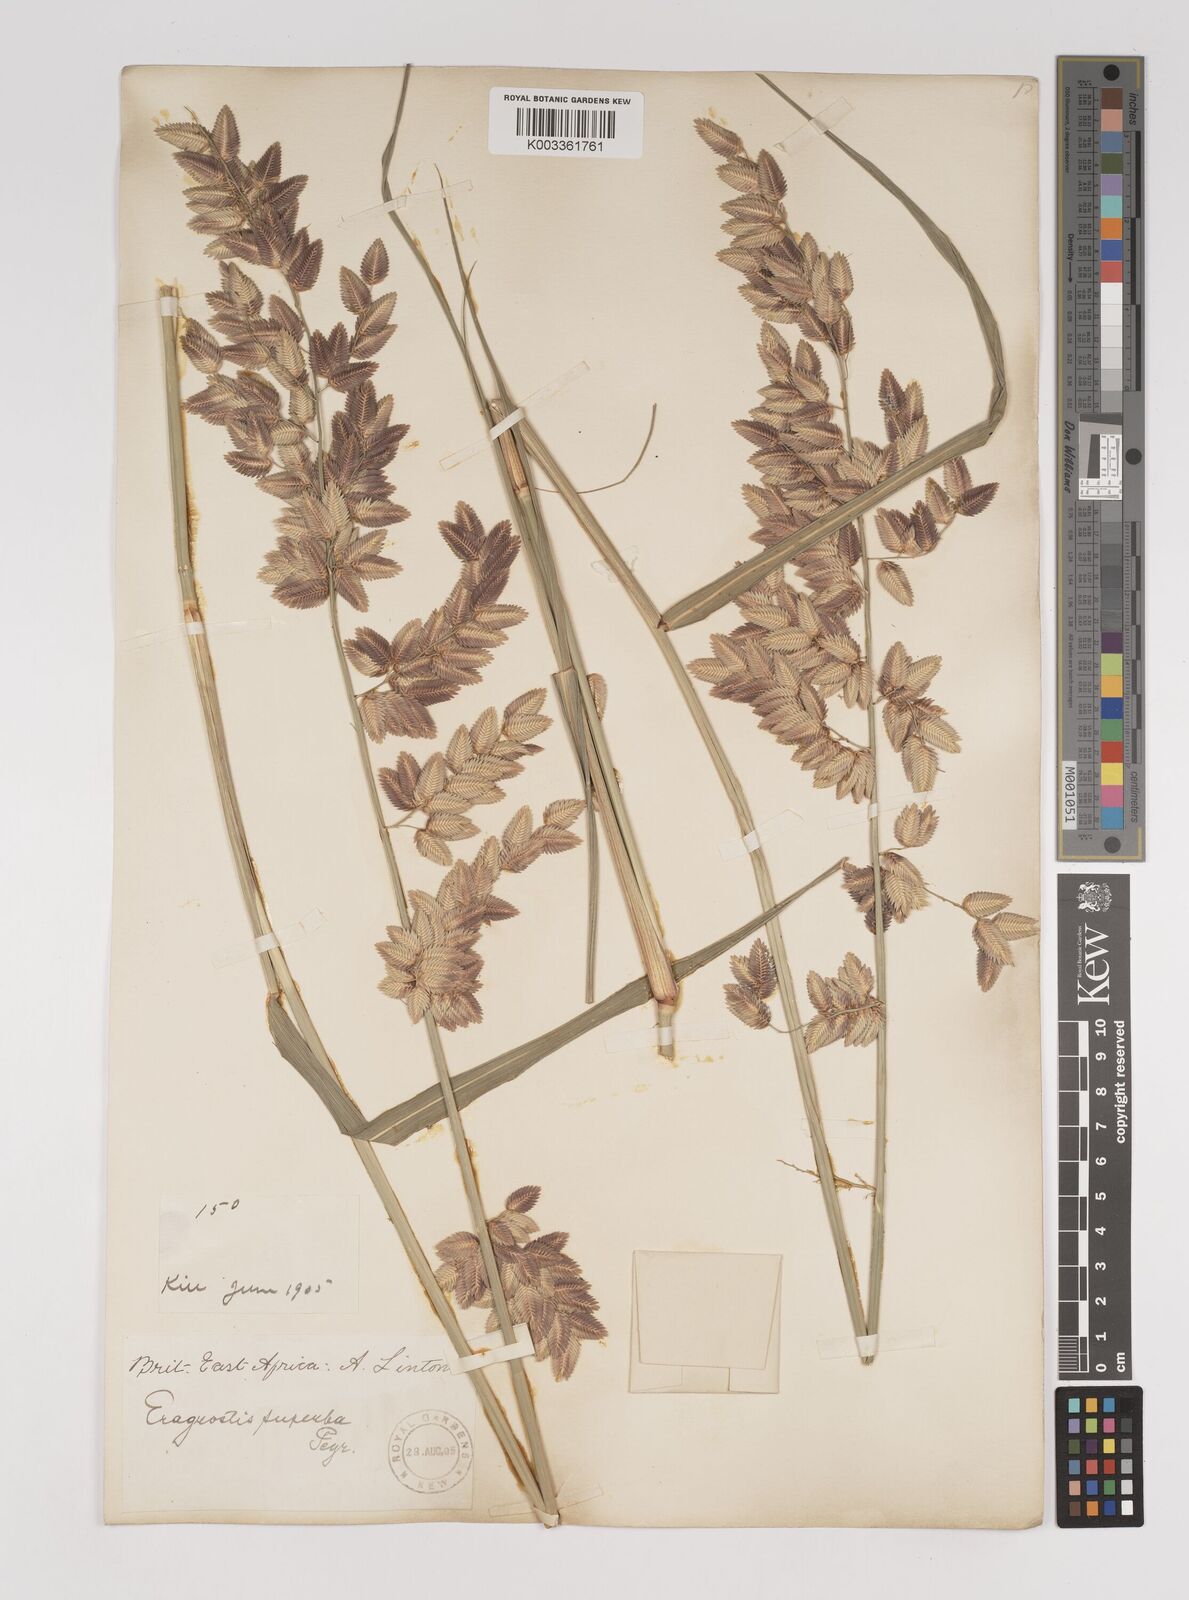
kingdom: Plantae
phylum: Tracheophyta
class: Liliopsida
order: Poales
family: Poaceae
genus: Eragrostis
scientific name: Eragrostis superba
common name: Wilman lovegrass
